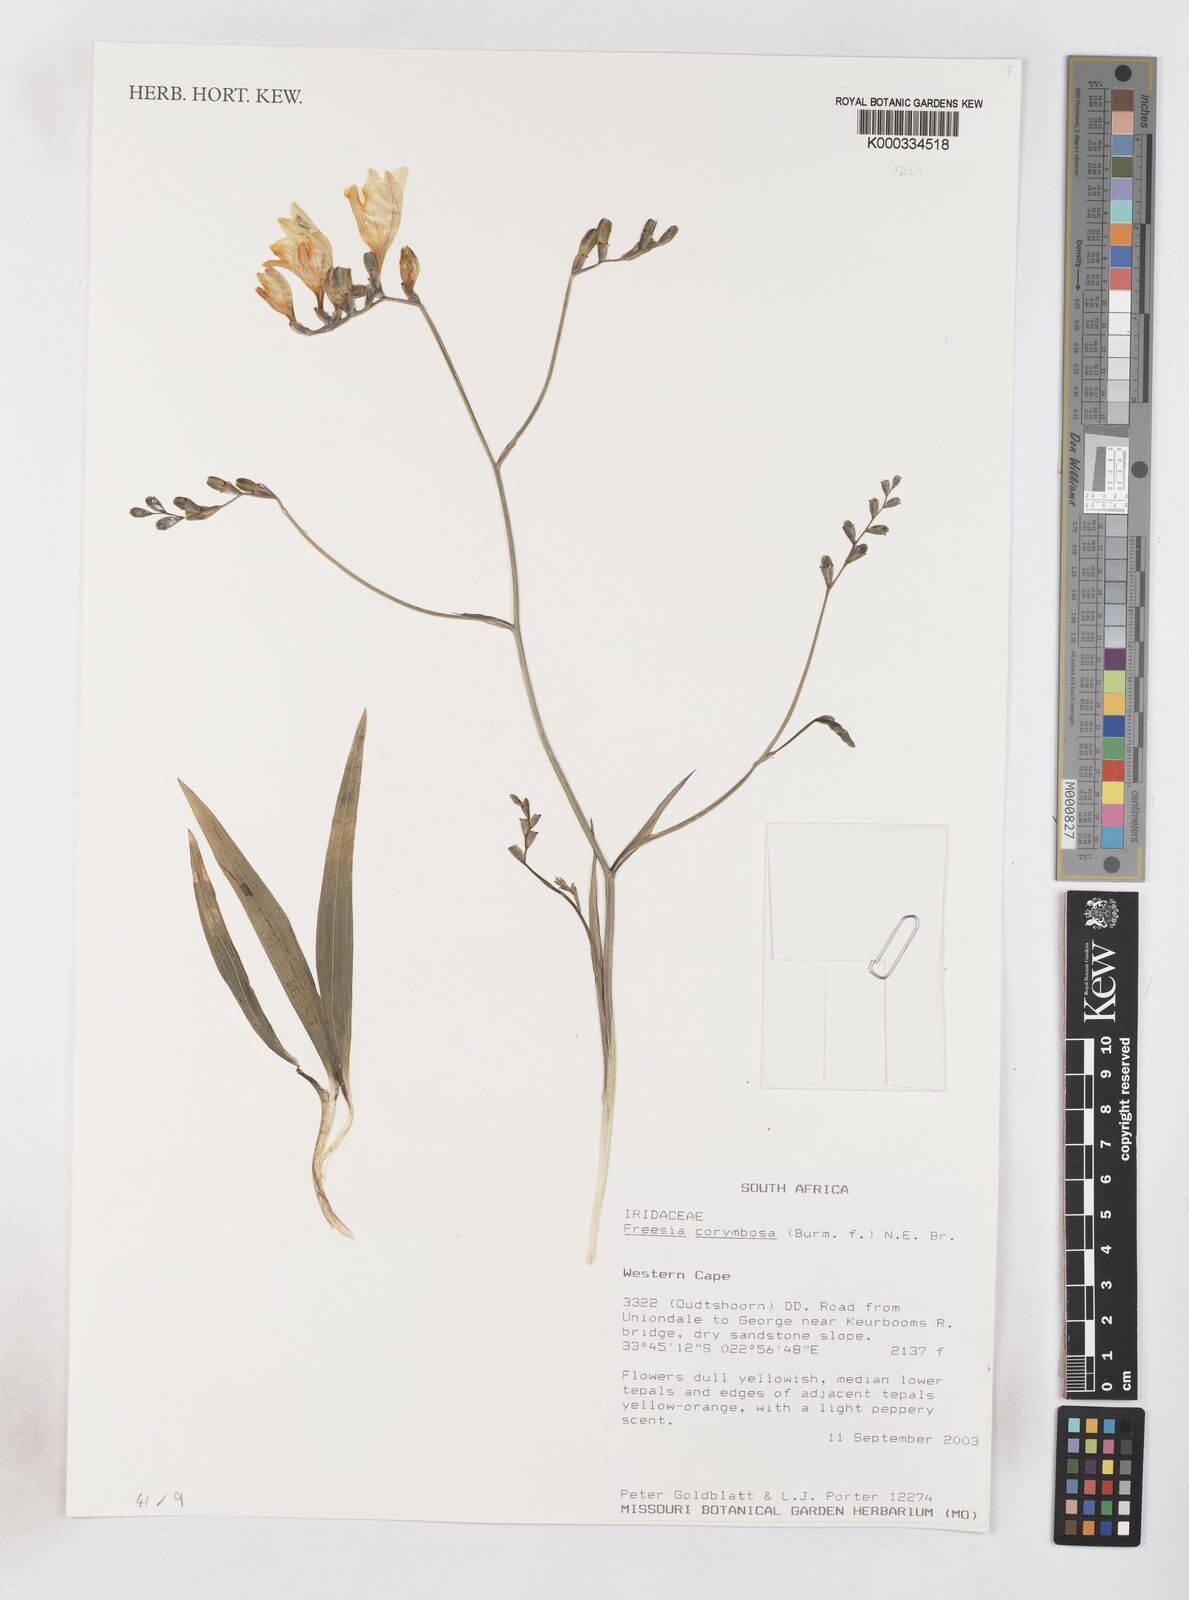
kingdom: Plantae
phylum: Tracheophyta
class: Liliopsida
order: Asparagales
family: Iridaceae
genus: Freesia
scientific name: Freesia corymbosa
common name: Common freesia
